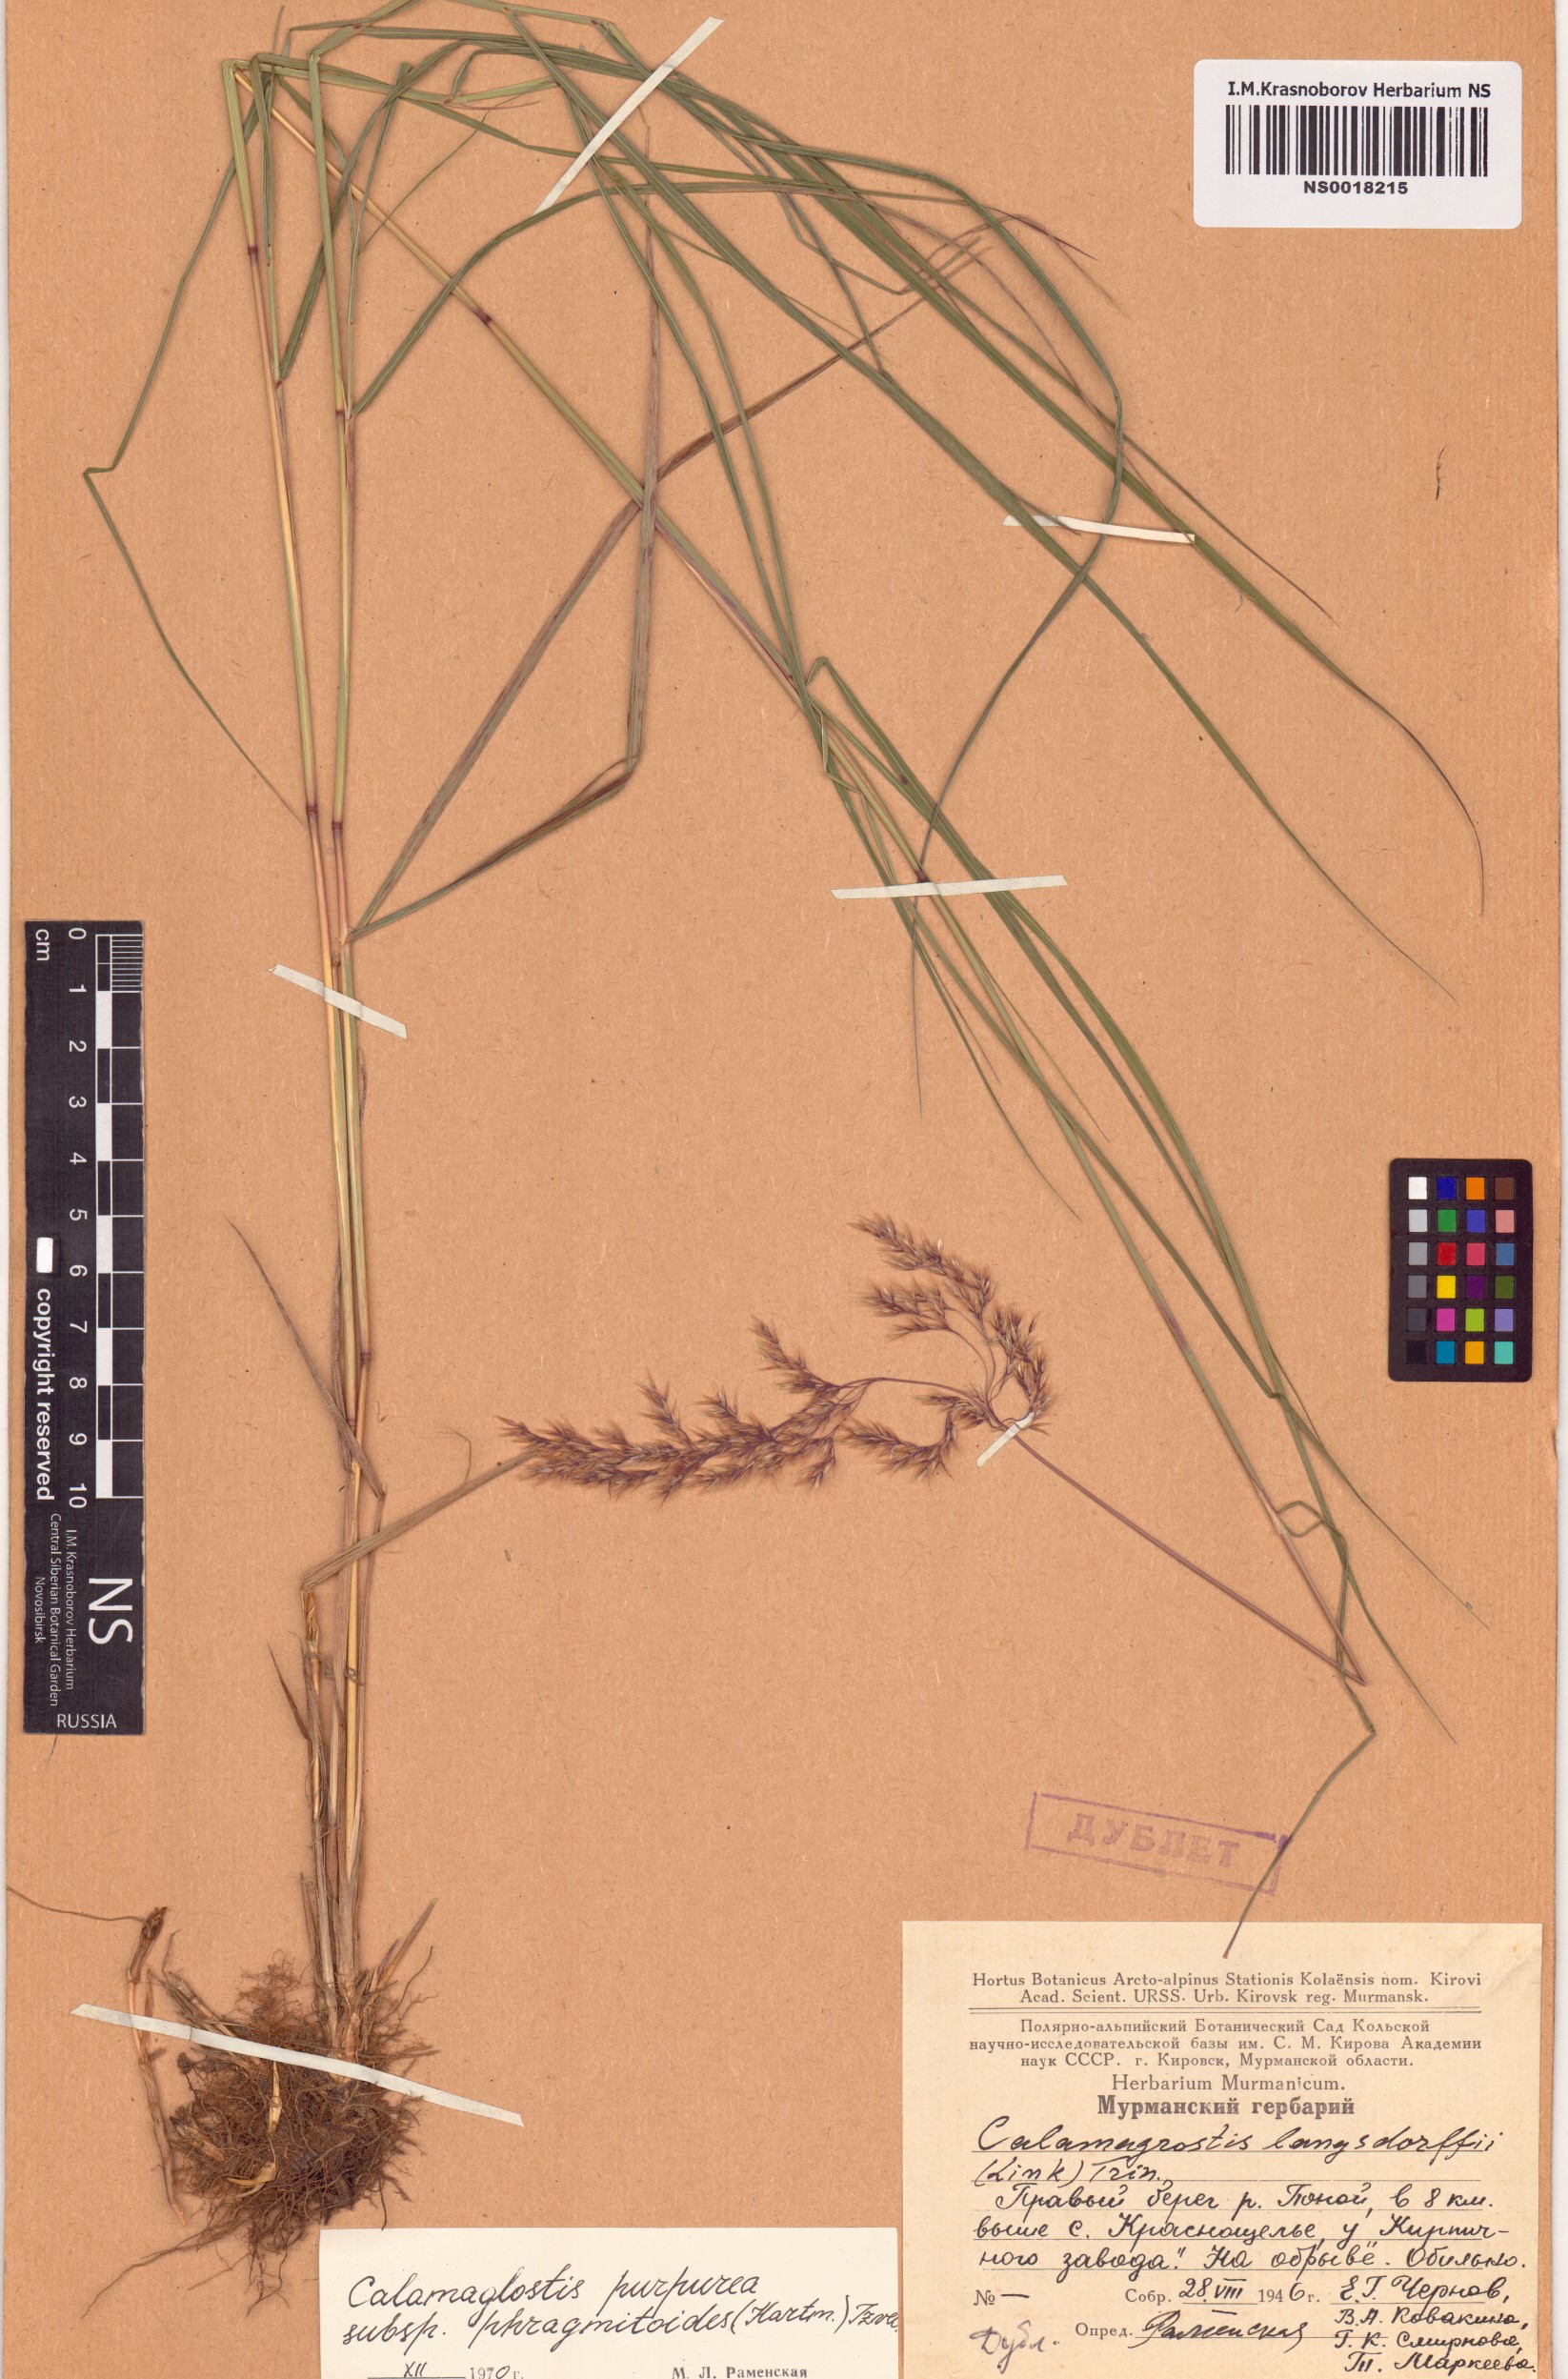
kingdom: Plantae
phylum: Tracheophyta
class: Liliopsida
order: Poales
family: Poaceae
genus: Calamagrostis
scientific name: Calamagrostis purpurea
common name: Scandinavian small-reed
